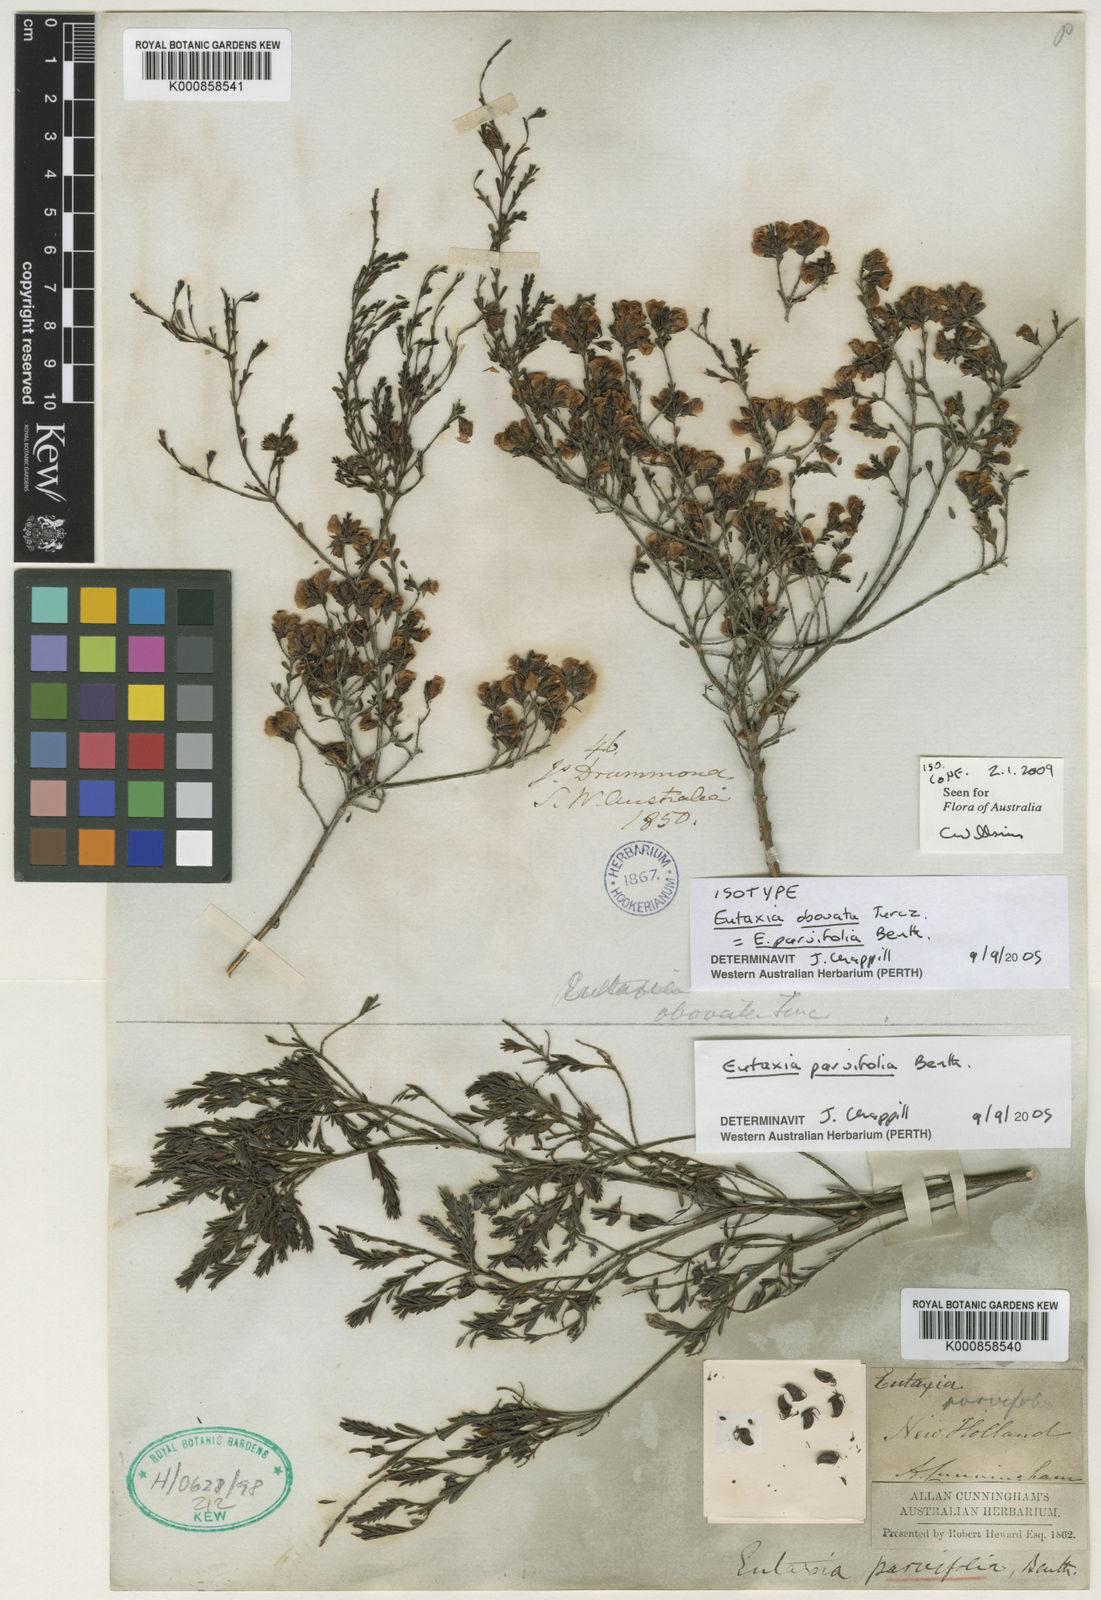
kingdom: Plantae
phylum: Tracheophyta
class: Magnoliopsida
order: Fabales
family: Fabaceae
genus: Eutaxia
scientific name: Eutaxia parvifolia
